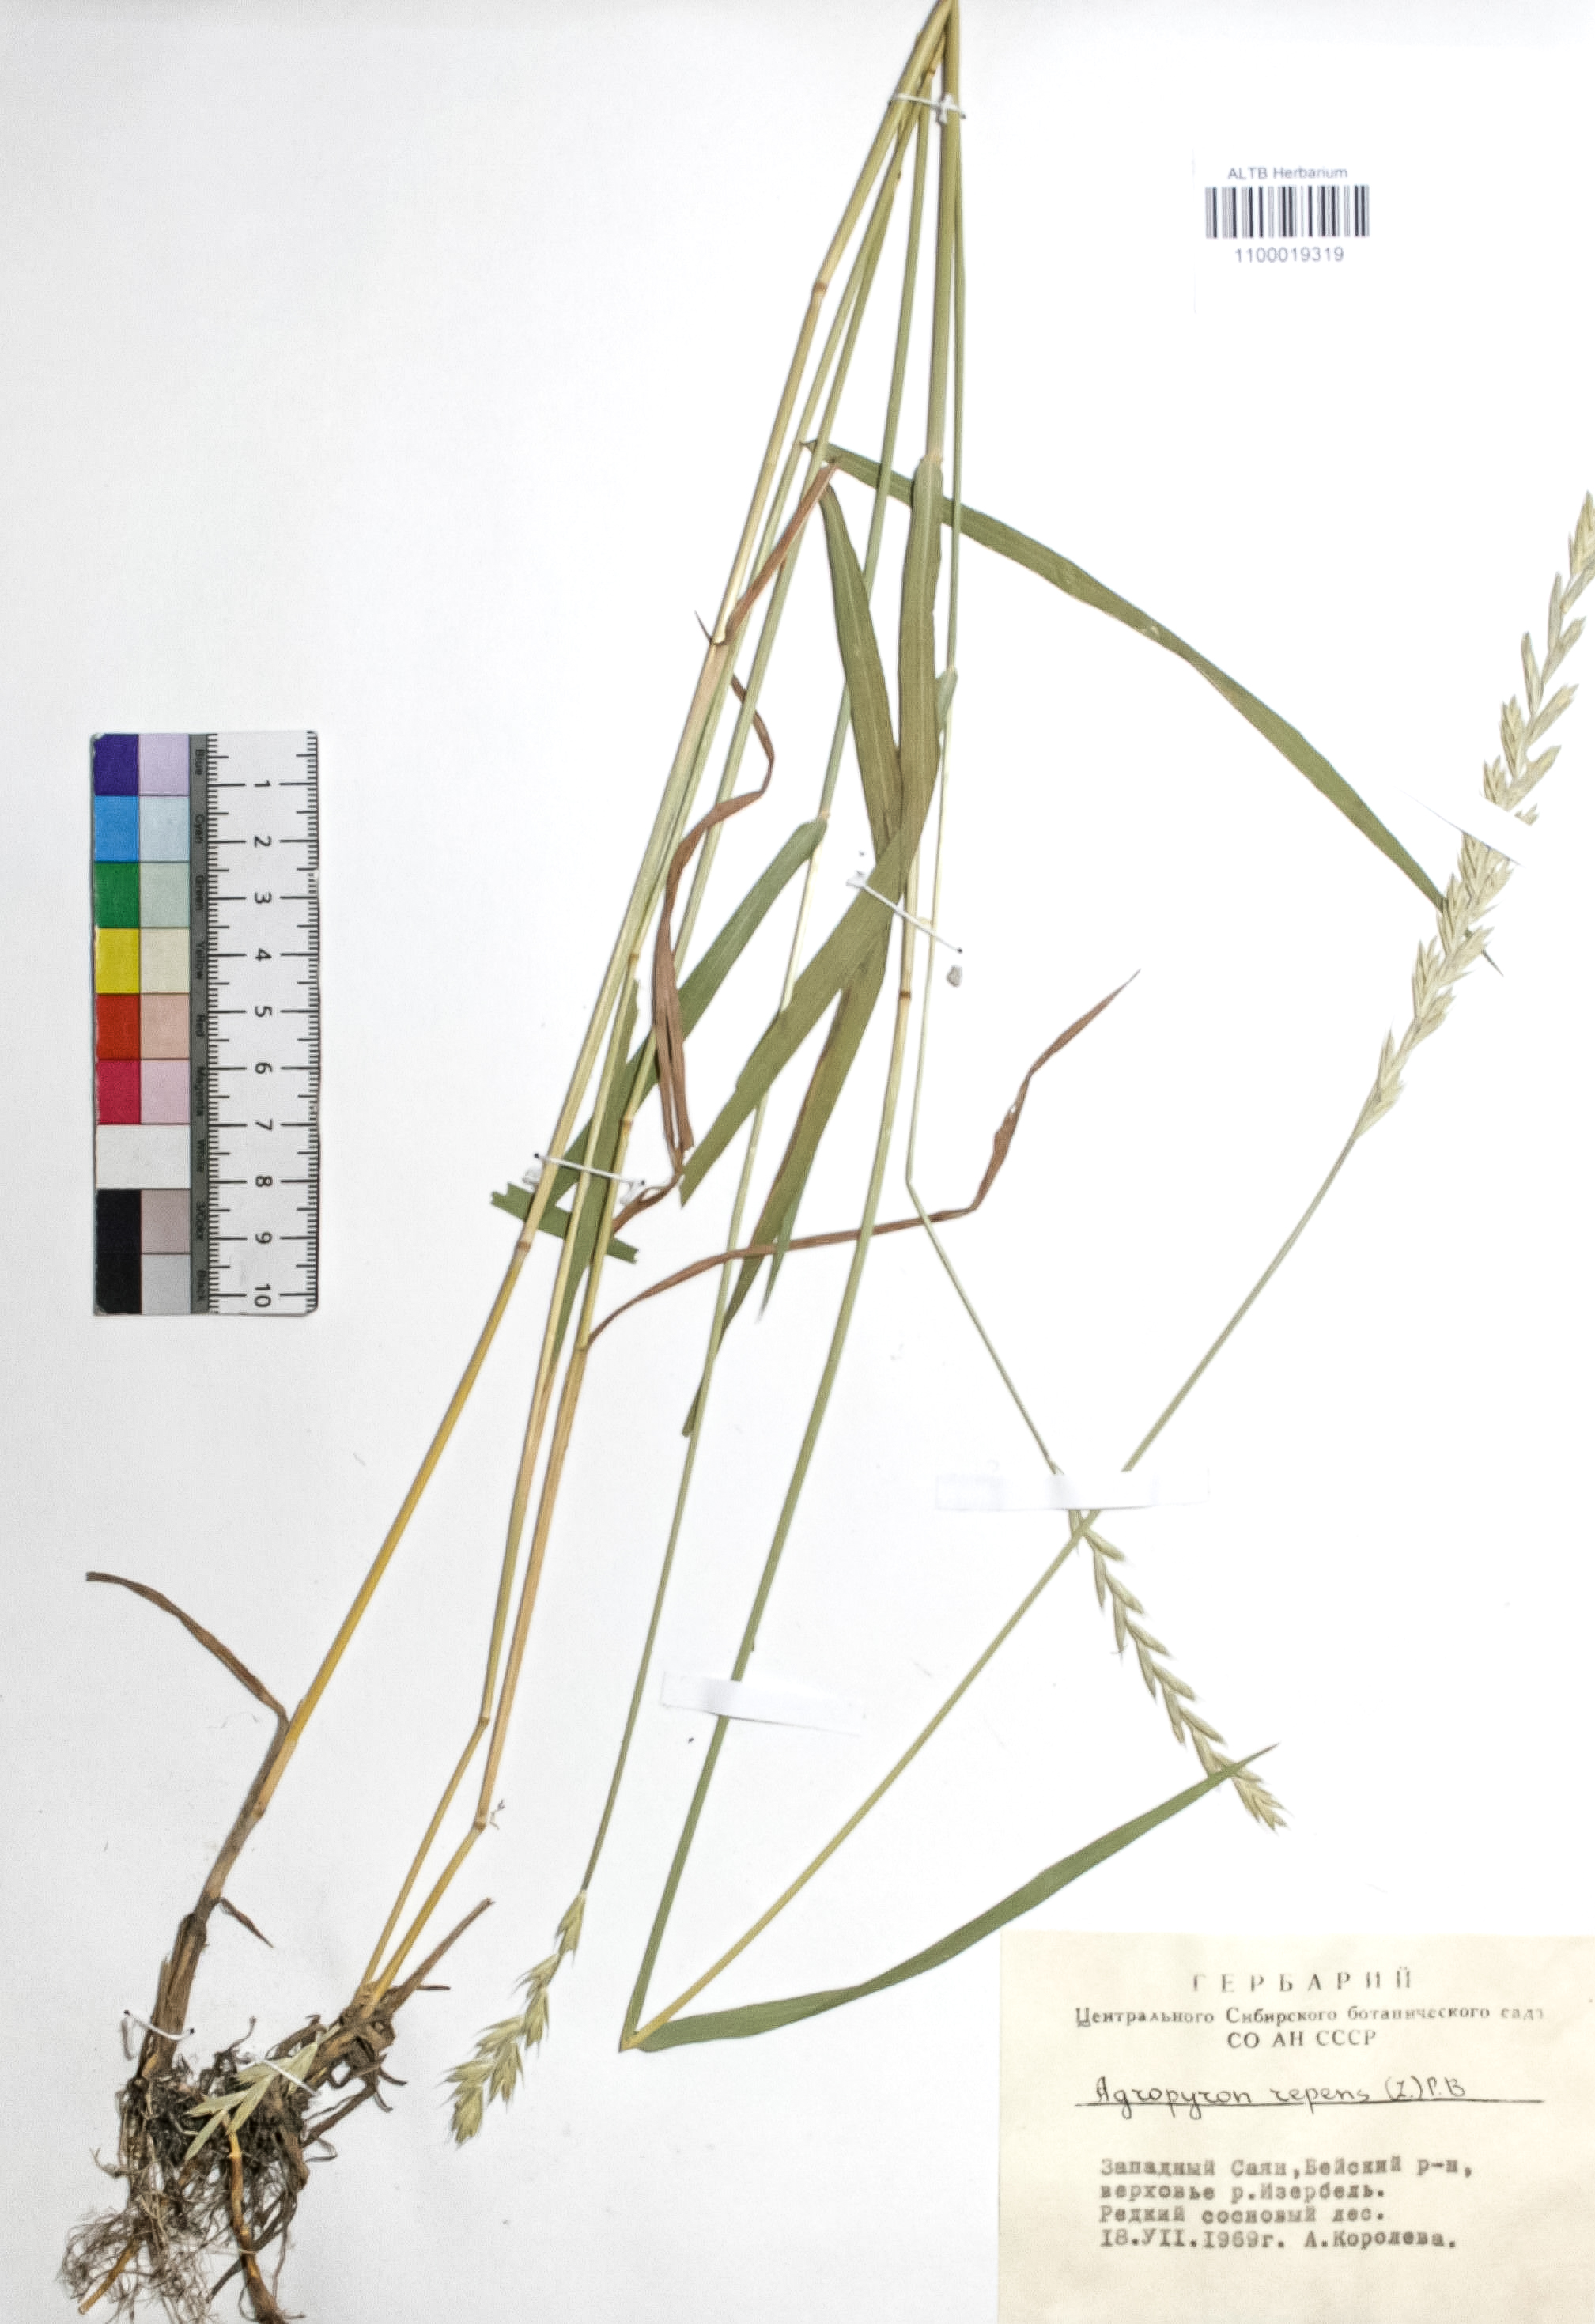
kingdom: Plantae
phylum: Tracheophyta
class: Liliopsida
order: Poales
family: Poaceae
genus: Elymus
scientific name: Elymus repens
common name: Quackgrass
